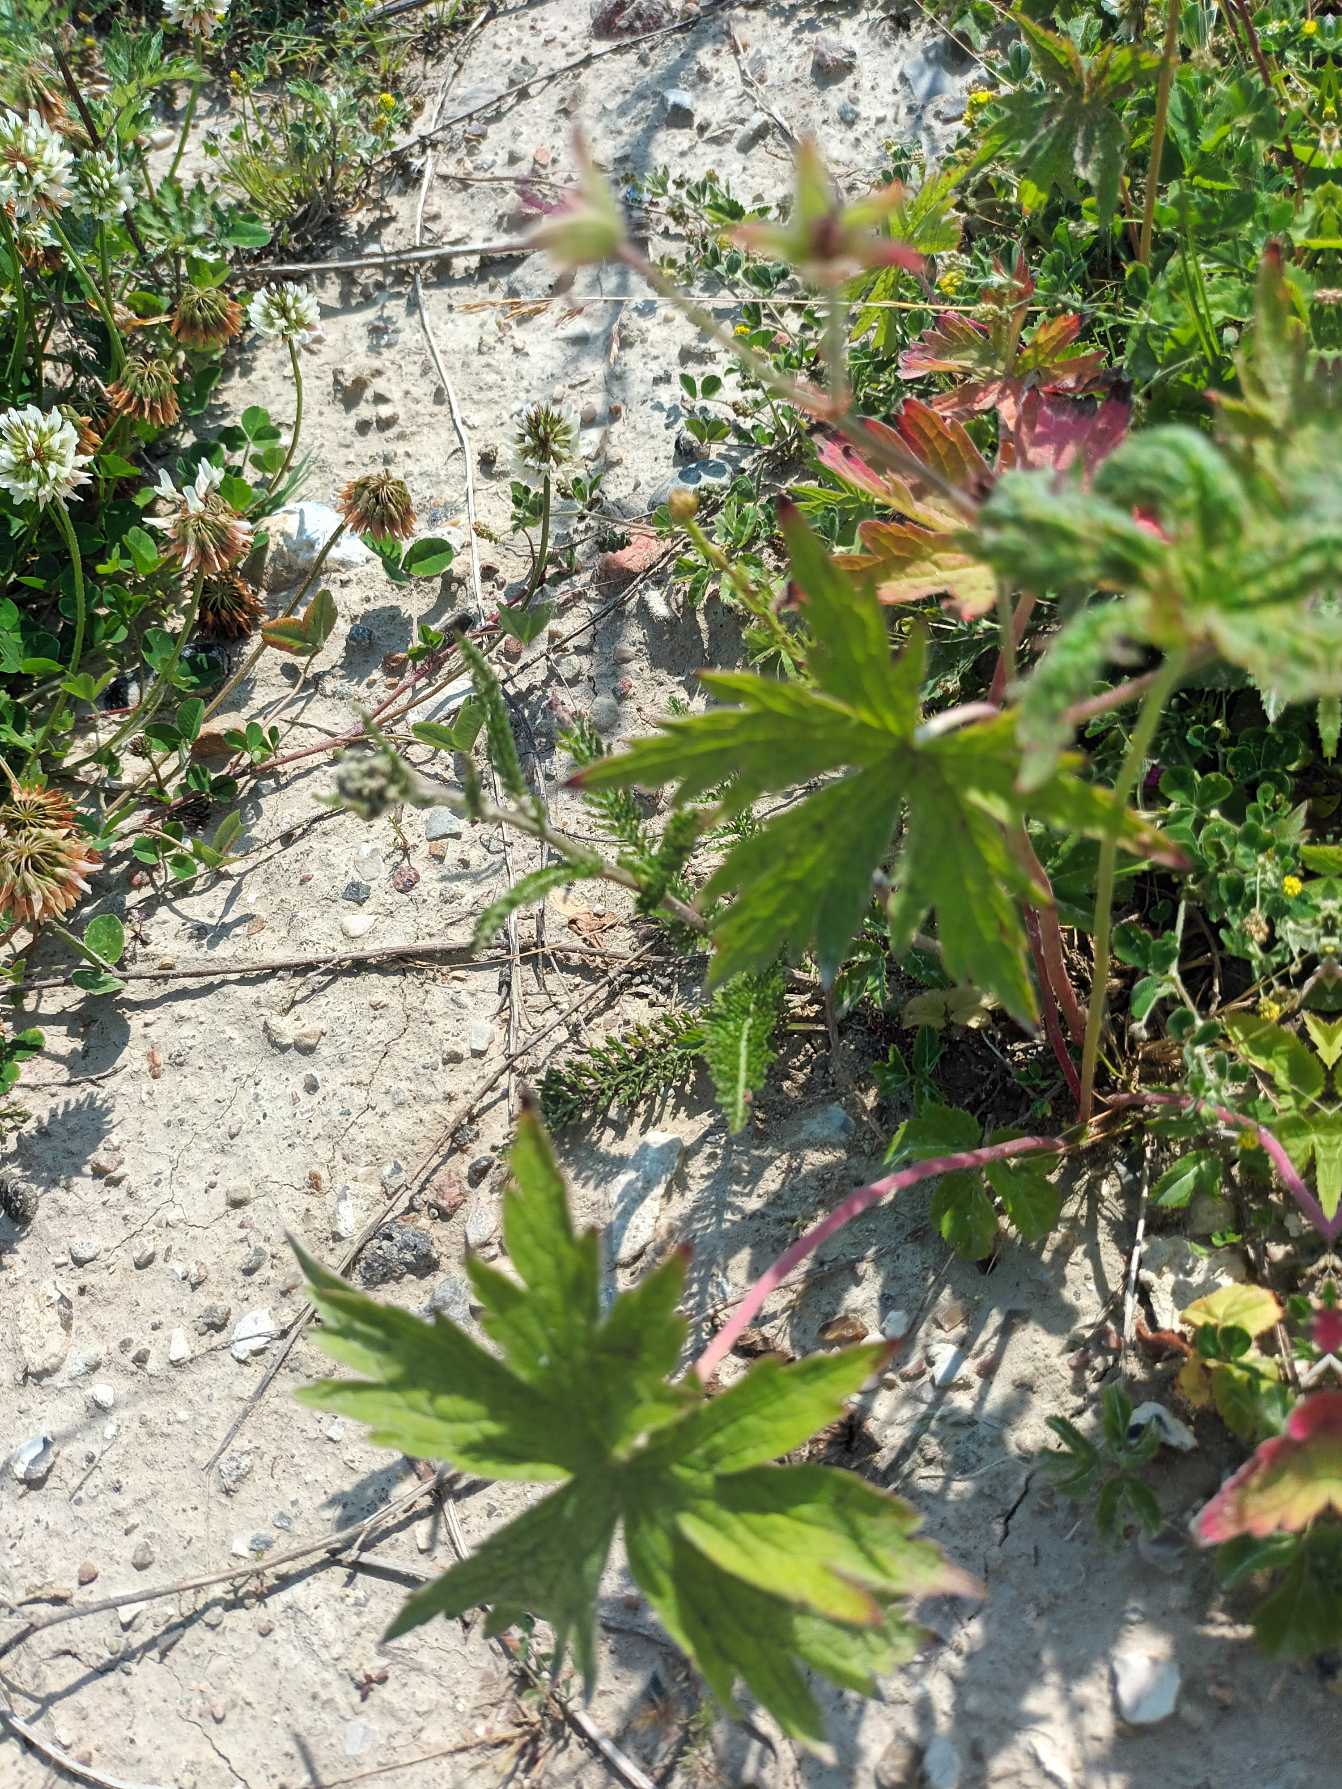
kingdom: Plantae
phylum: Tracheophyta
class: Magnoliopsida
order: Geraniales
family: Geraniaceae
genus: Geranium
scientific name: Geranium oxonianum
